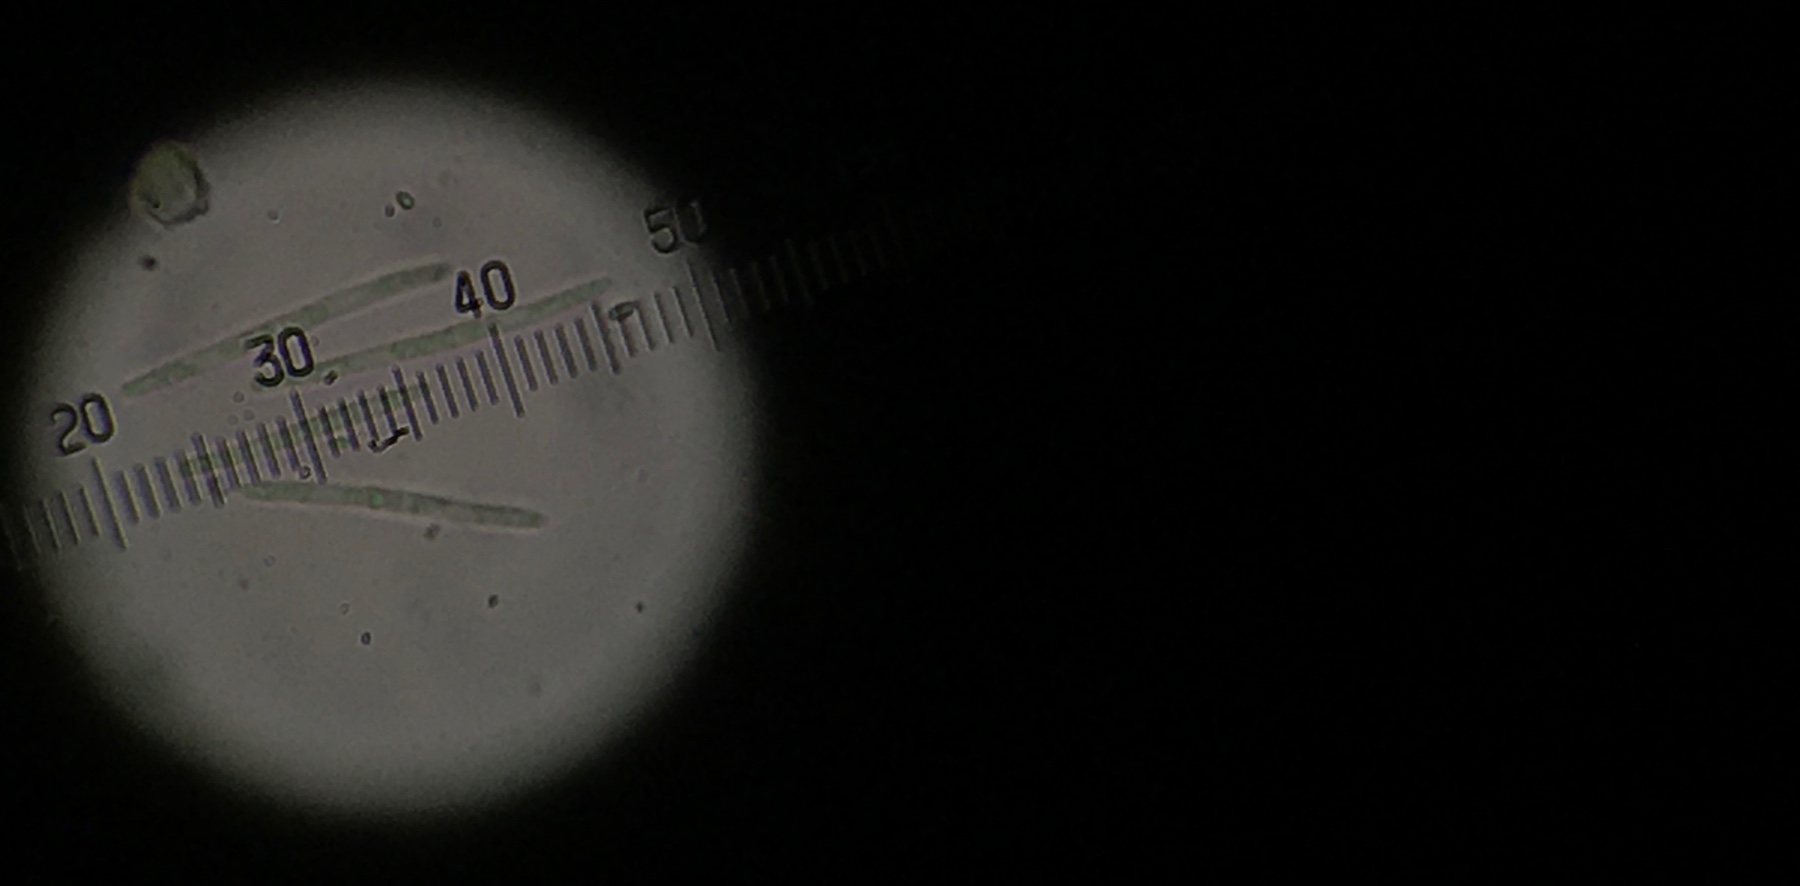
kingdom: Fungi
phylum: Ascomycota
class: Leotiomycetes
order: Helotiales
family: Lachnaceae
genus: Lachnum
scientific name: Lachnum apalum
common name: siv-frynseskive
